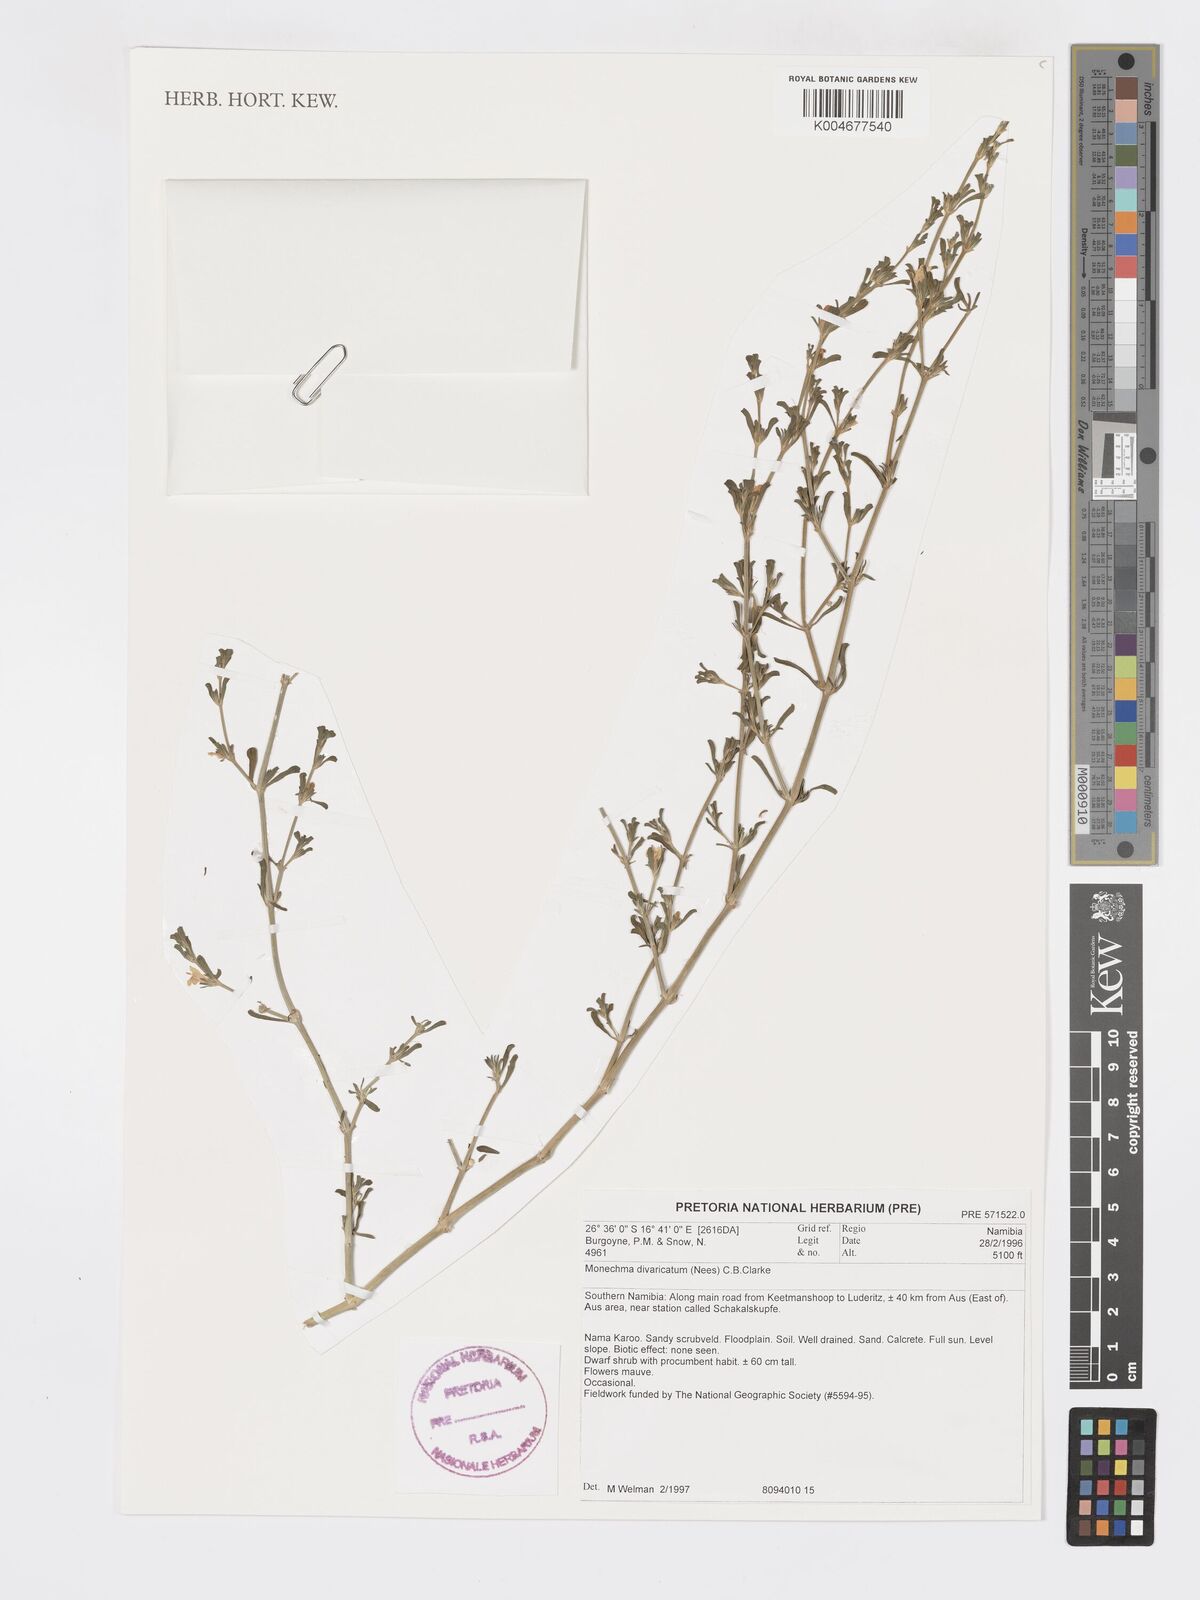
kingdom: Plantae
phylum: Tracheophyta
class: Magnoliopsida
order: Lamiales
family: Acanthaceae
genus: Pogonospermum
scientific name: Pogonospermum
